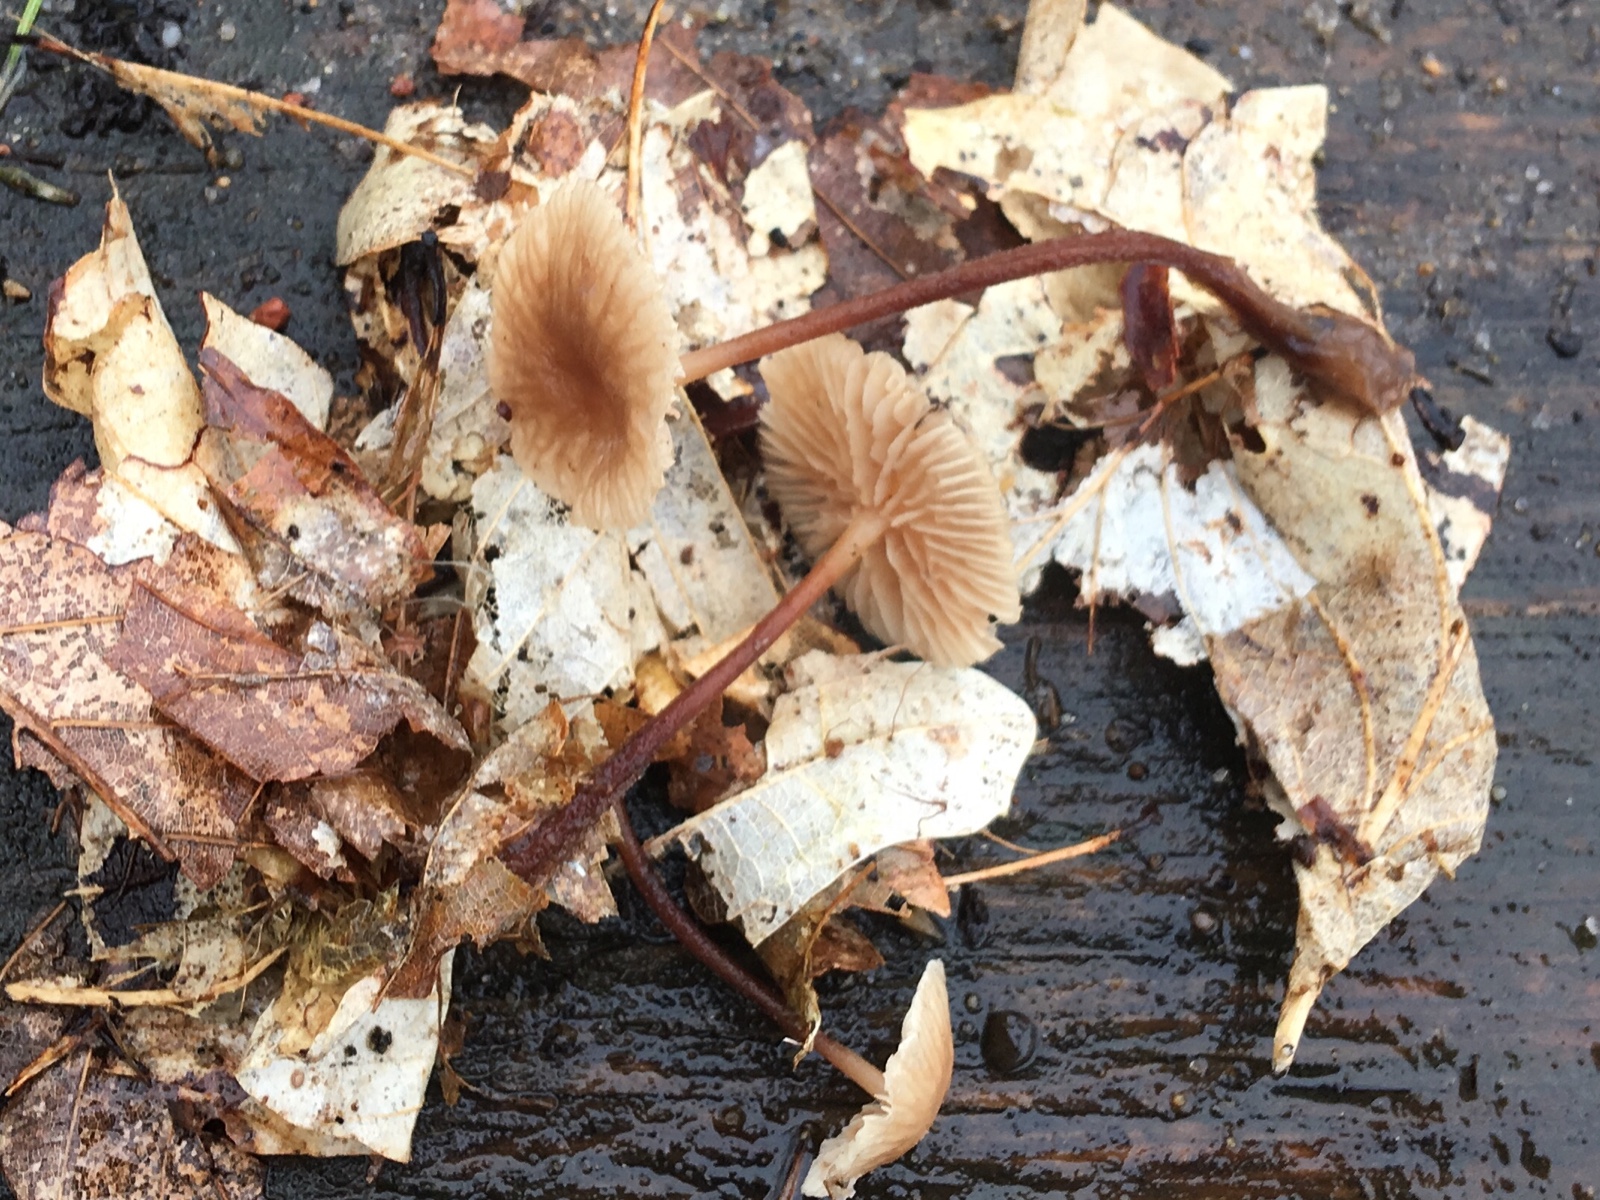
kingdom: Fungi
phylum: Basidiomycota
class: Agaricomycetes
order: Agaricales
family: Marasmiaceae
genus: Marasmius
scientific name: Marasmius torquescens
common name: filtfodet bruskhat
